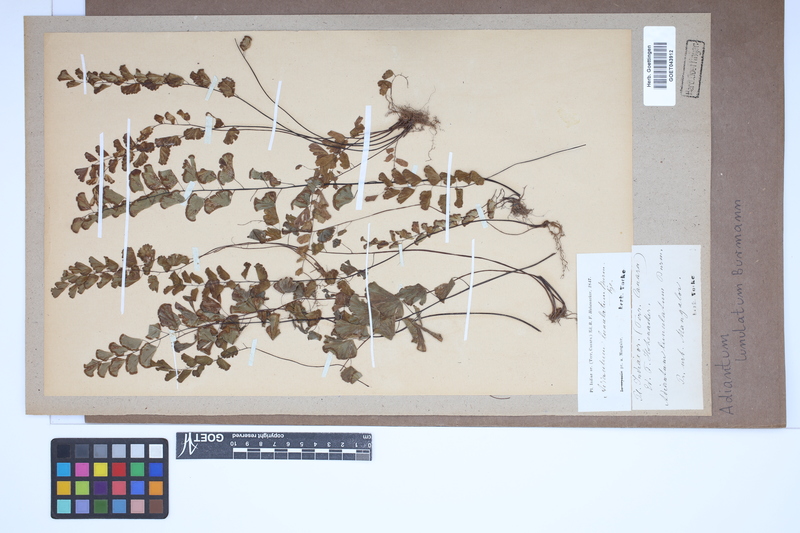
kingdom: Plantae
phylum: Tracheophyta
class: Polypodiopsida
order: Polypodiales
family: Pteridaceae
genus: Adiantum
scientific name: Adiantum philippense
